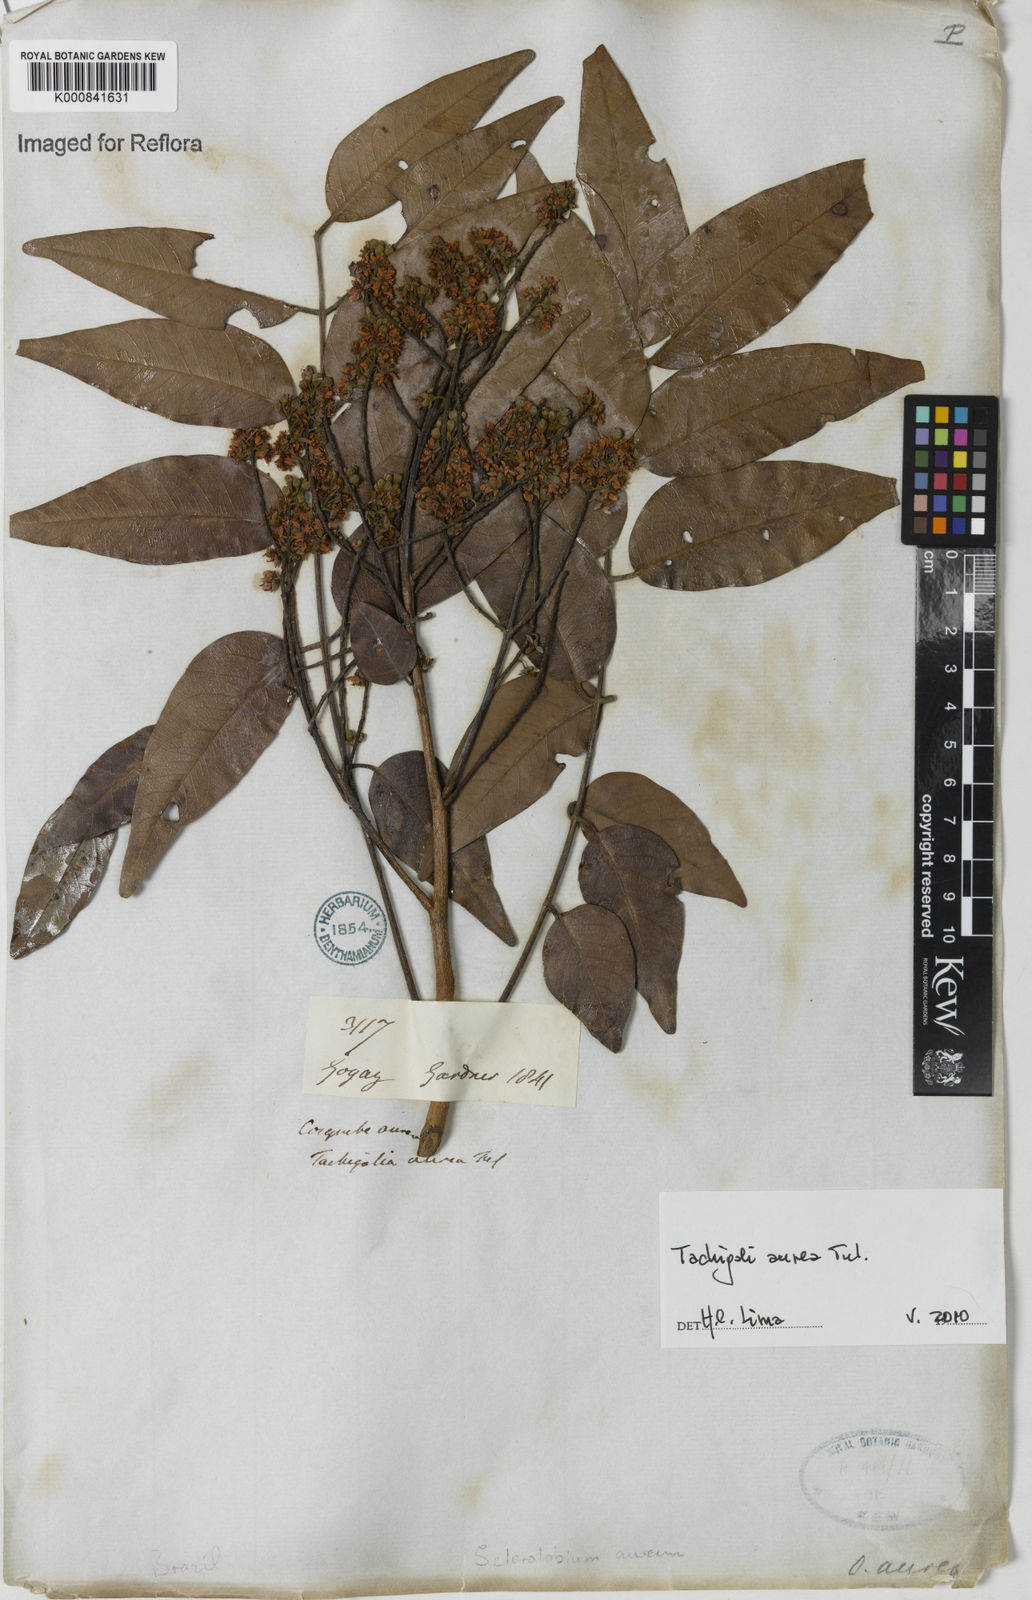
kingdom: Plantae
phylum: Tracheophyta
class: Magnoliopsida
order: Fabales
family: Fabaceae
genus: Tachigali
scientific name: Tachigali aurea
